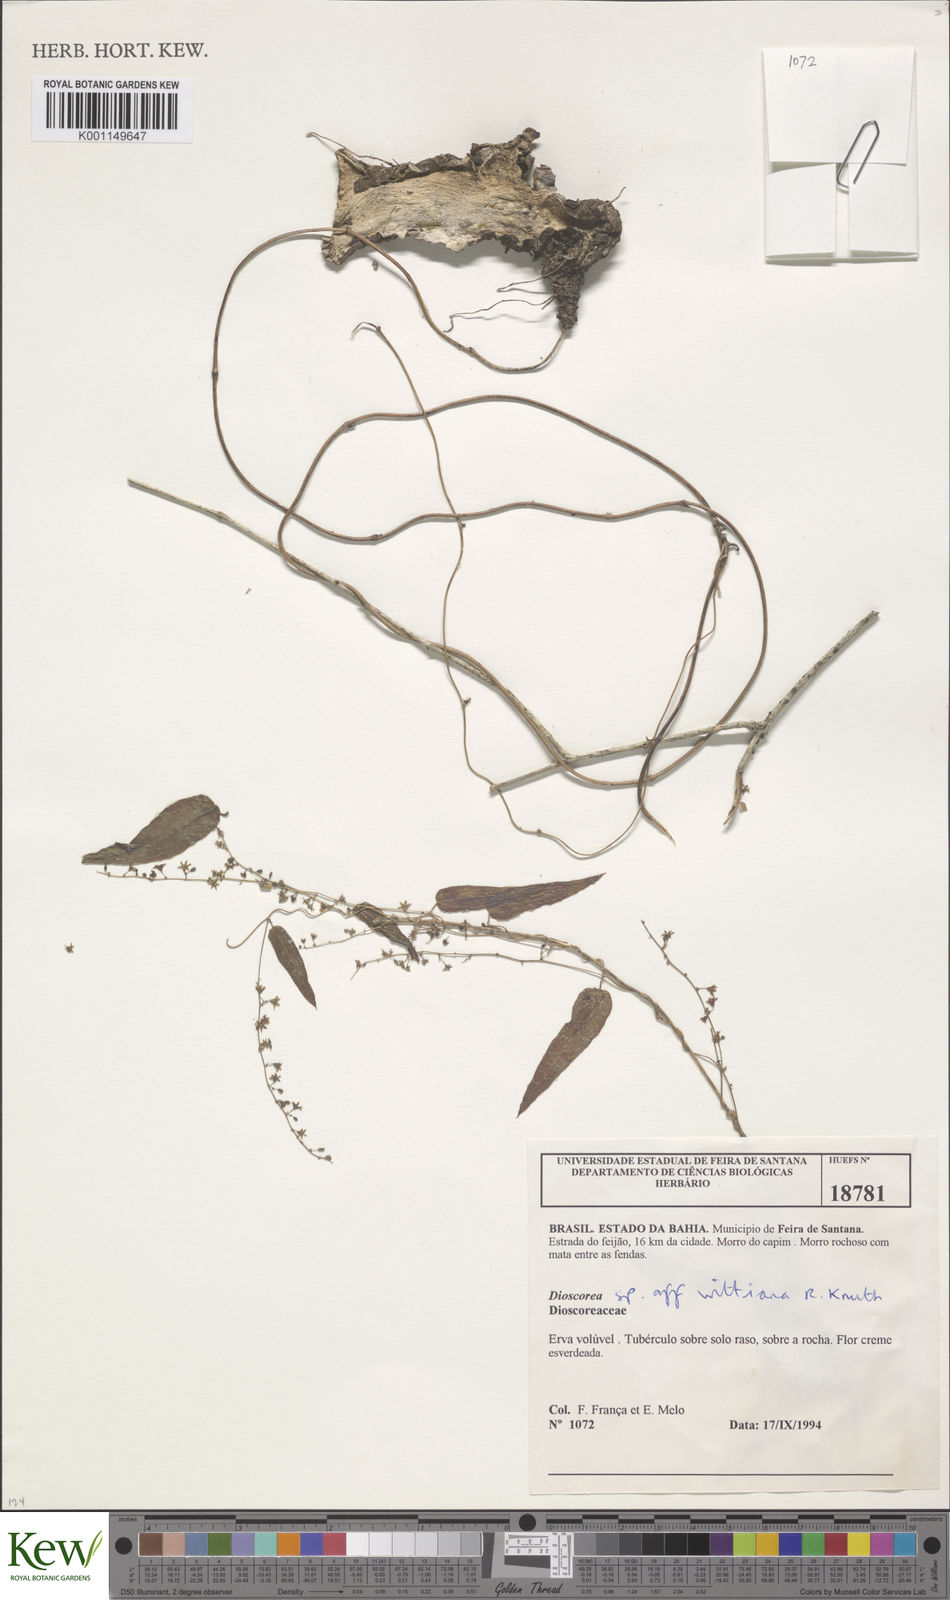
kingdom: Plantae
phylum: Tracheophyta
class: Liliopsida
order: Dioscoreales
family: Dioscoreaceae
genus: Dioscorea
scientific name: Dioscorea wittiana
